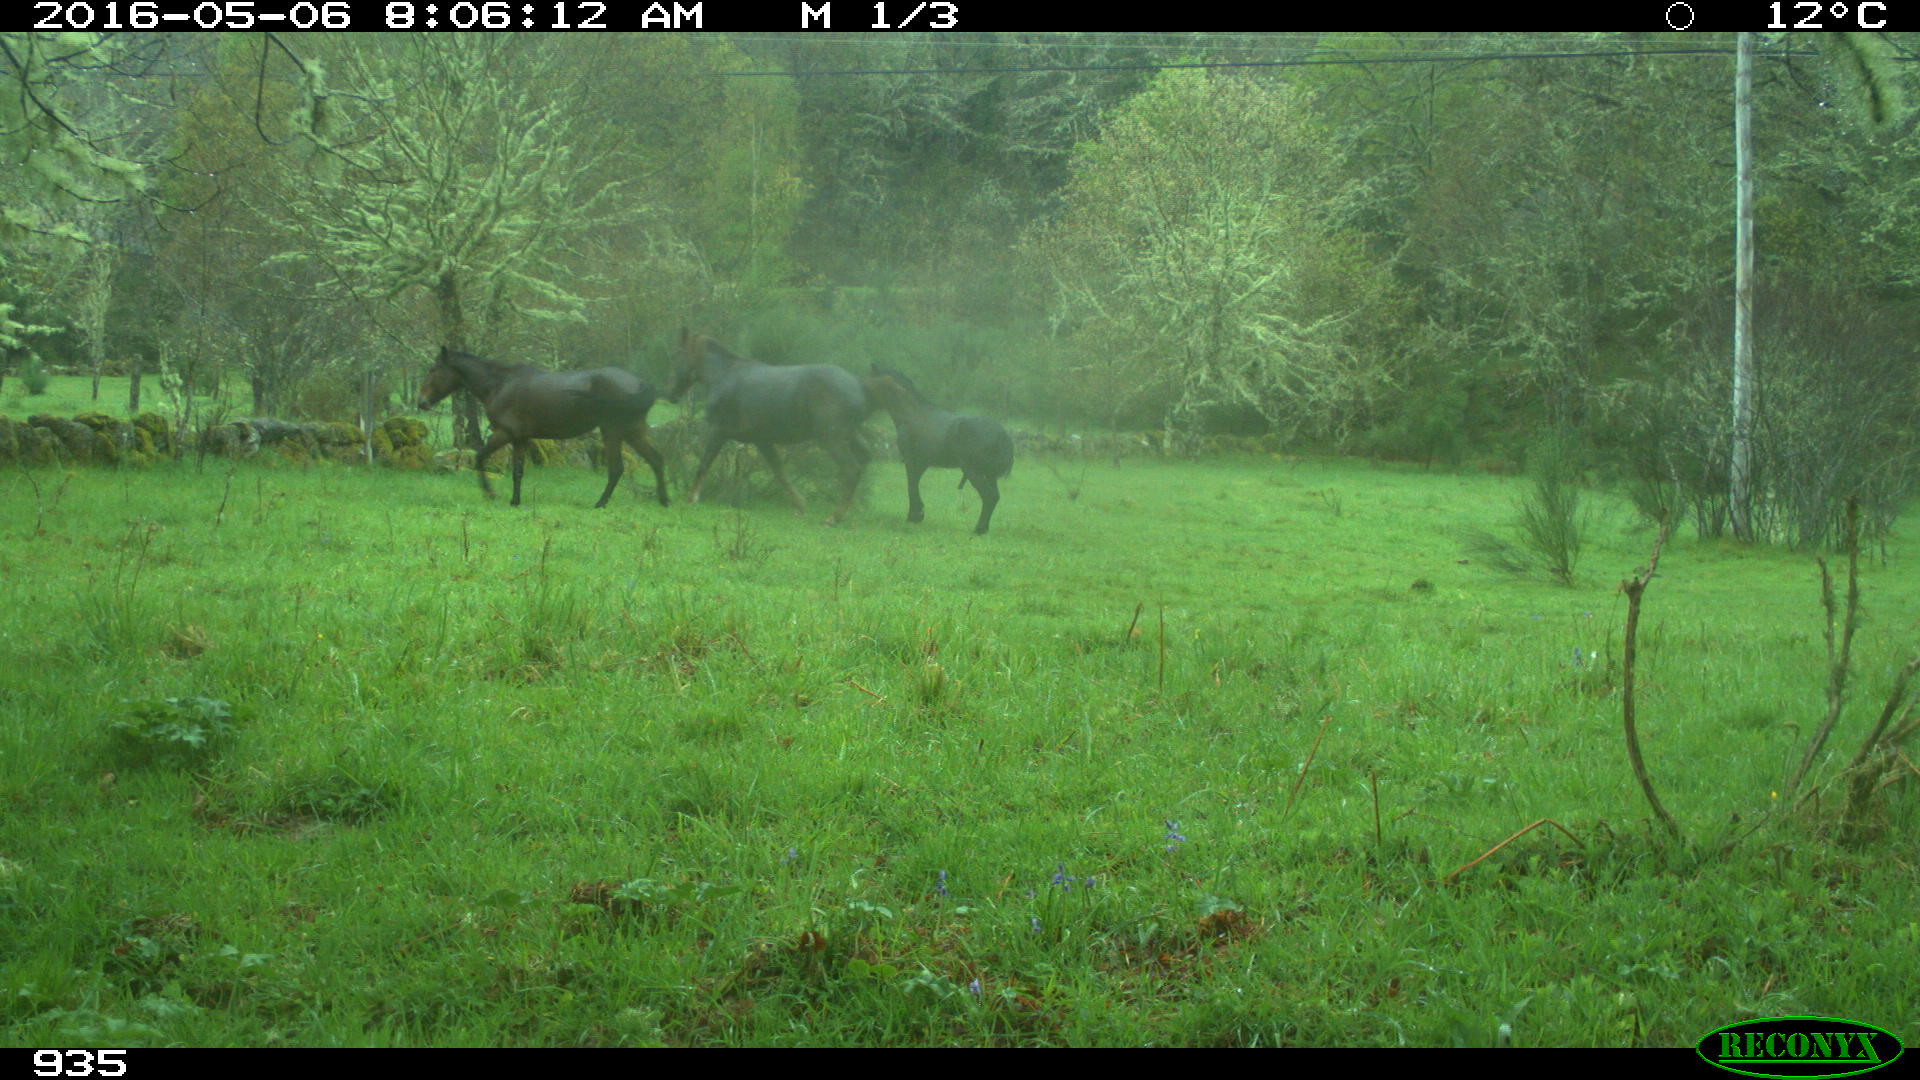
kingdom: Animalia
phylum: Chordata
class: Mammalia
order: Perissodactyla
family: Equidae
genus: Equus
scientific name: Equus caballus
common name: Horse
